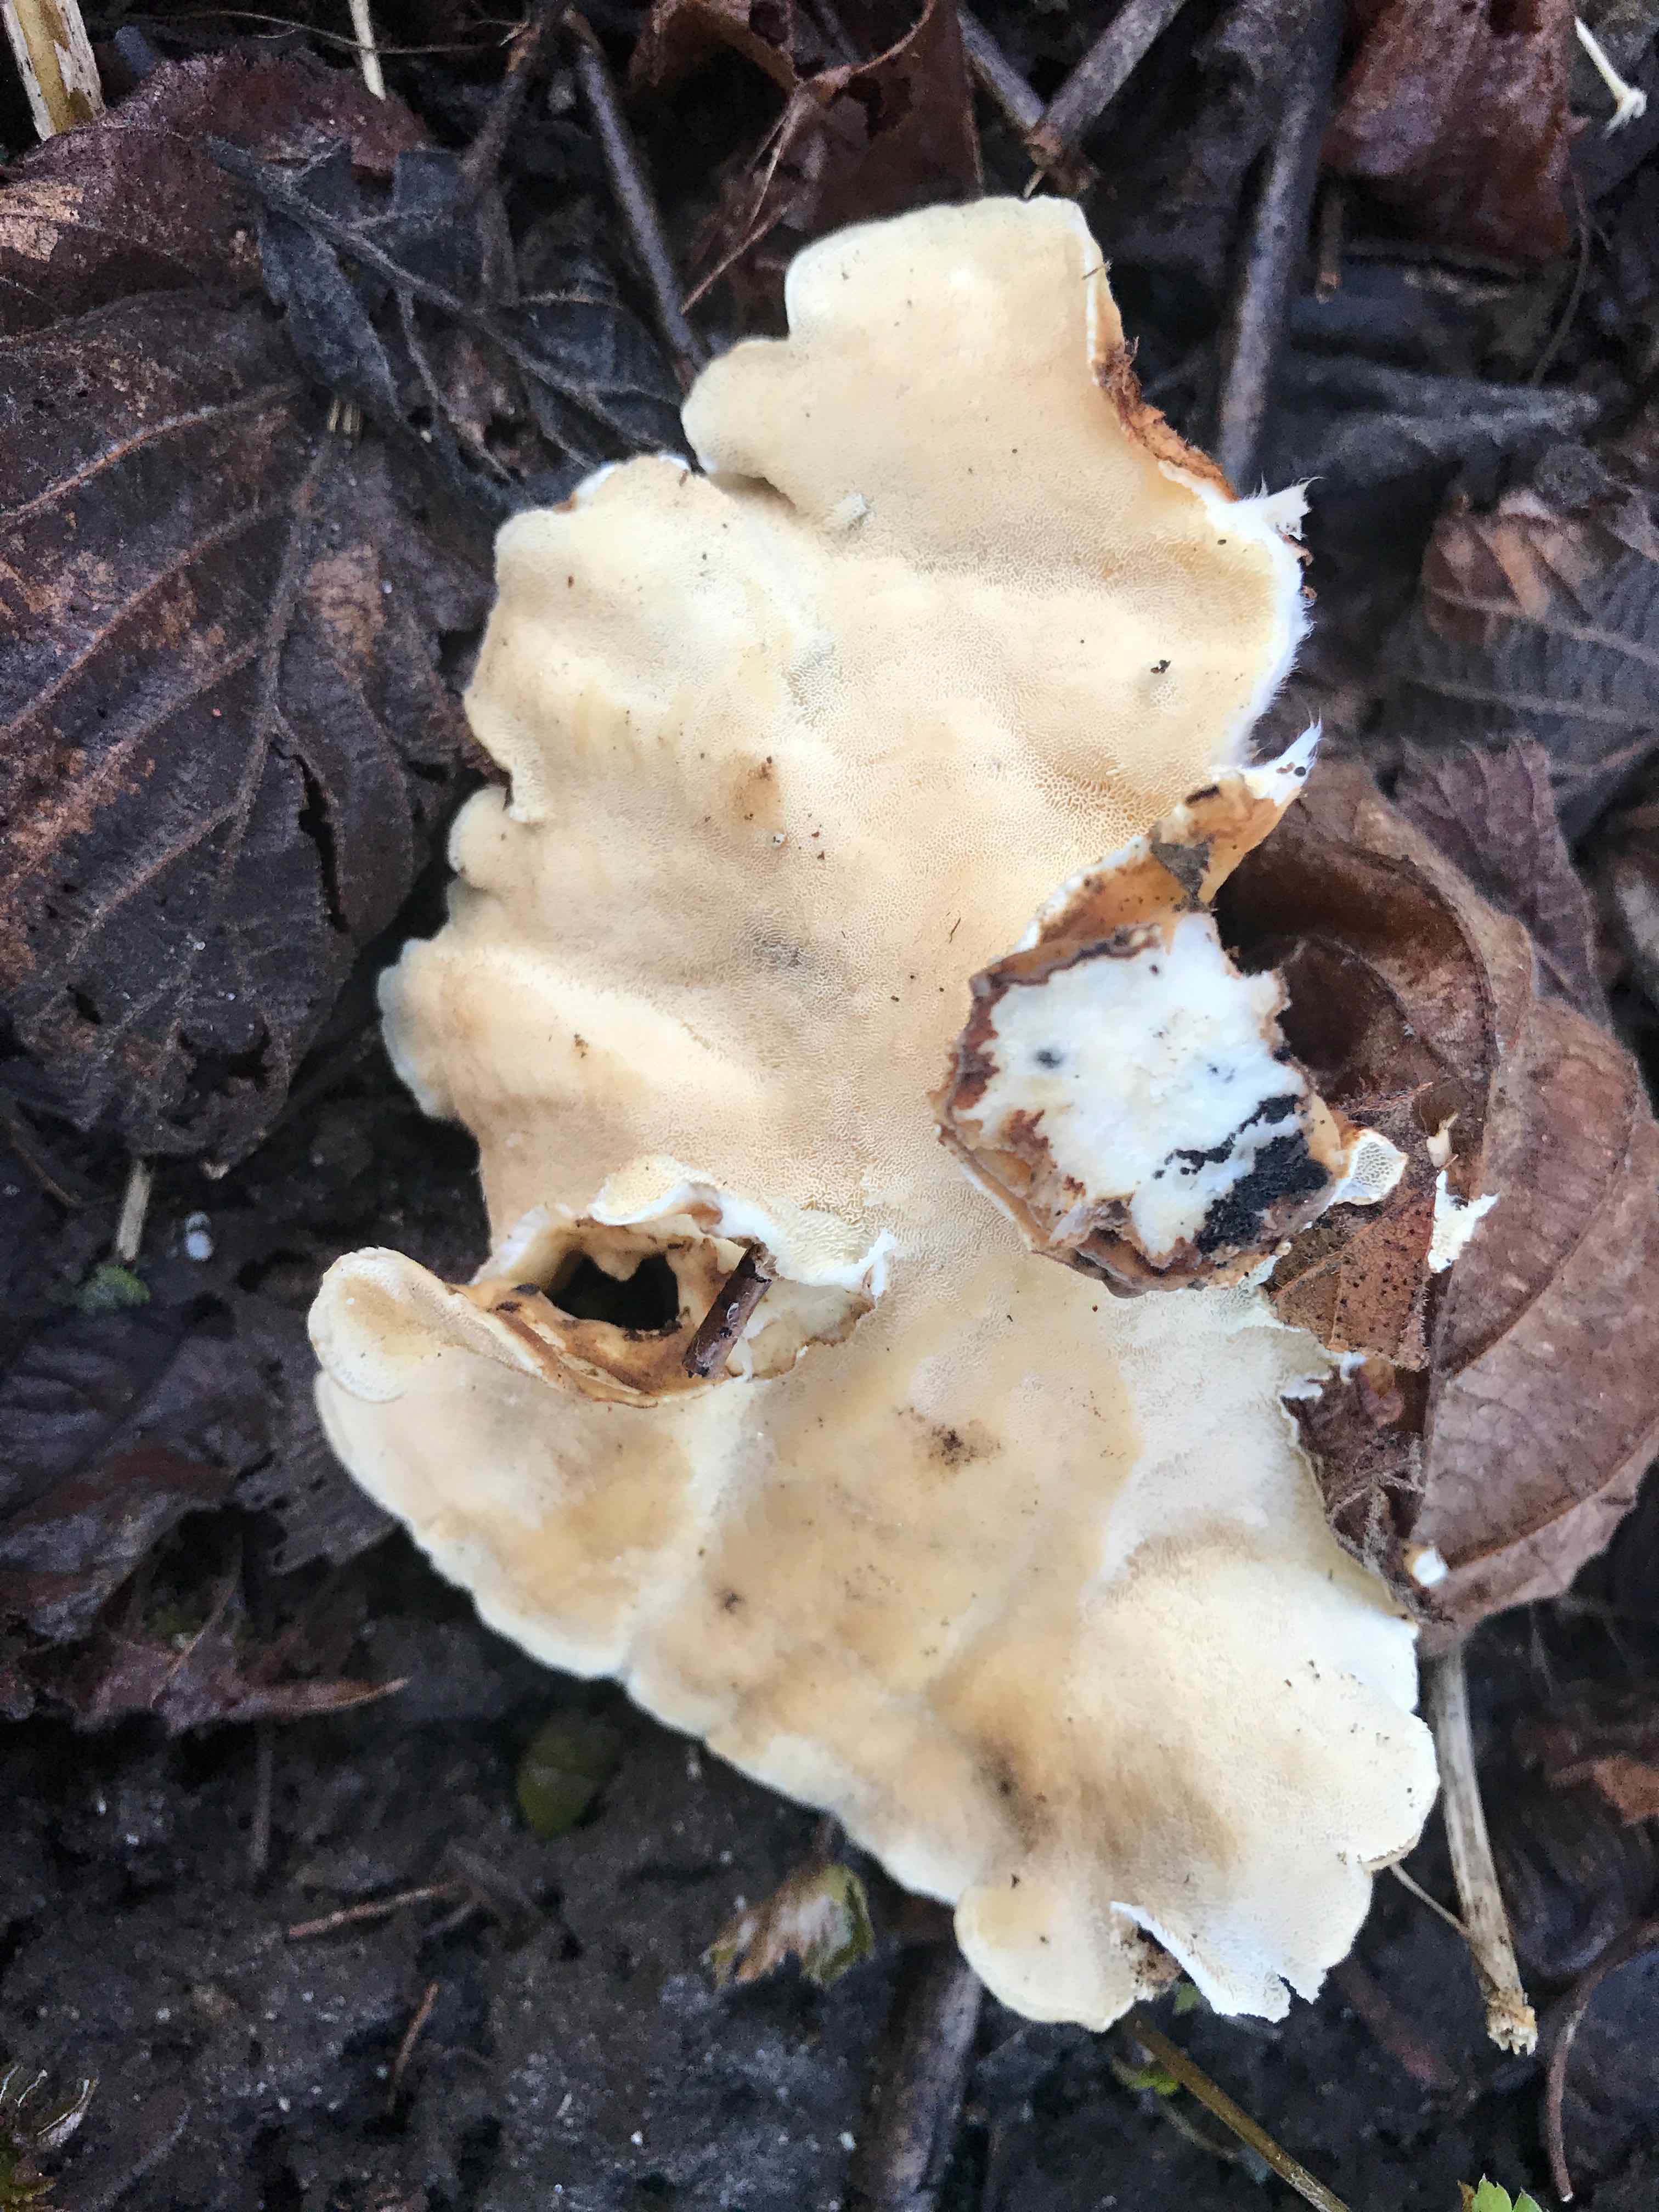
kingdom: Fungi
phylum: Basidiomycota
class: Agaricomycetes
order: Polyporales
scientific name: Polyporales
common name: poresvampordenen
